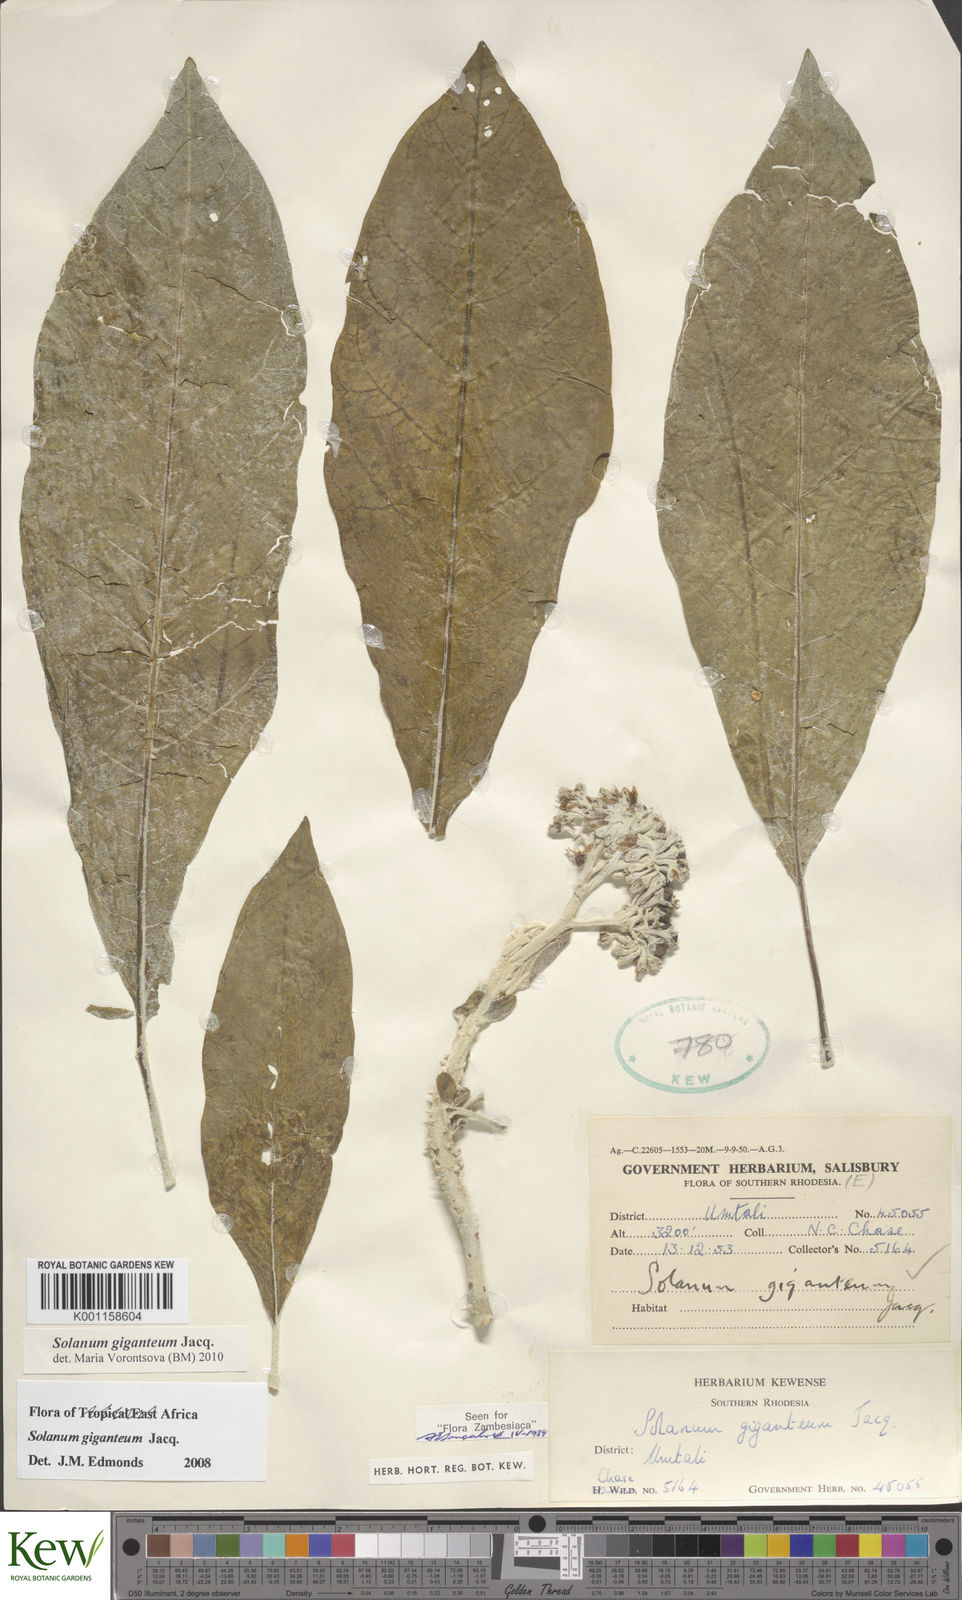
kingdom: Plantae
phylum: Tracheophyta
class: Magnoliopsida
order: Solanales
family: Solanaceae
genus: Solanum
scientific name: Solanum giganteum
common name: Healing-leaf-tree
